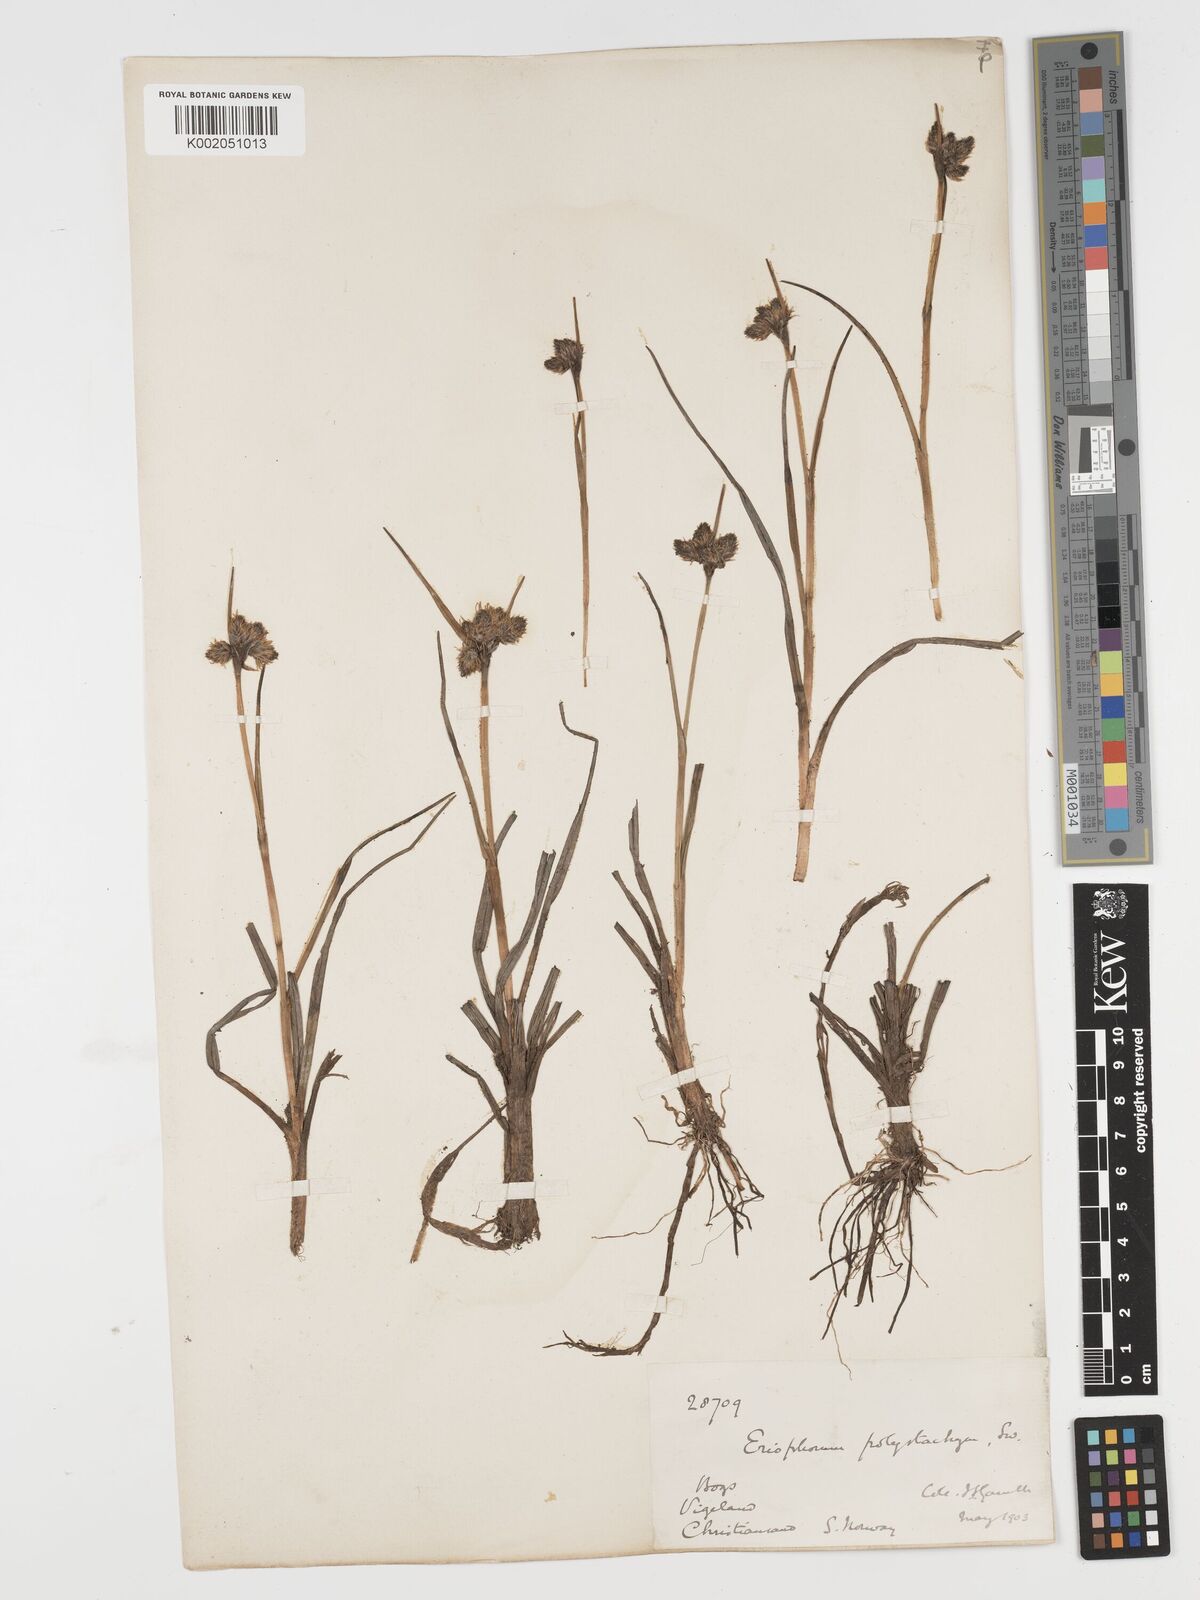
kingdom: Plantae
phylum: Tracheophyta
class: Liliopsida
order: Poales
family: Cyperaceae
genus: Eriophorum
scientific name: Eriophorum angustifolium
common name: Common cottongrass
